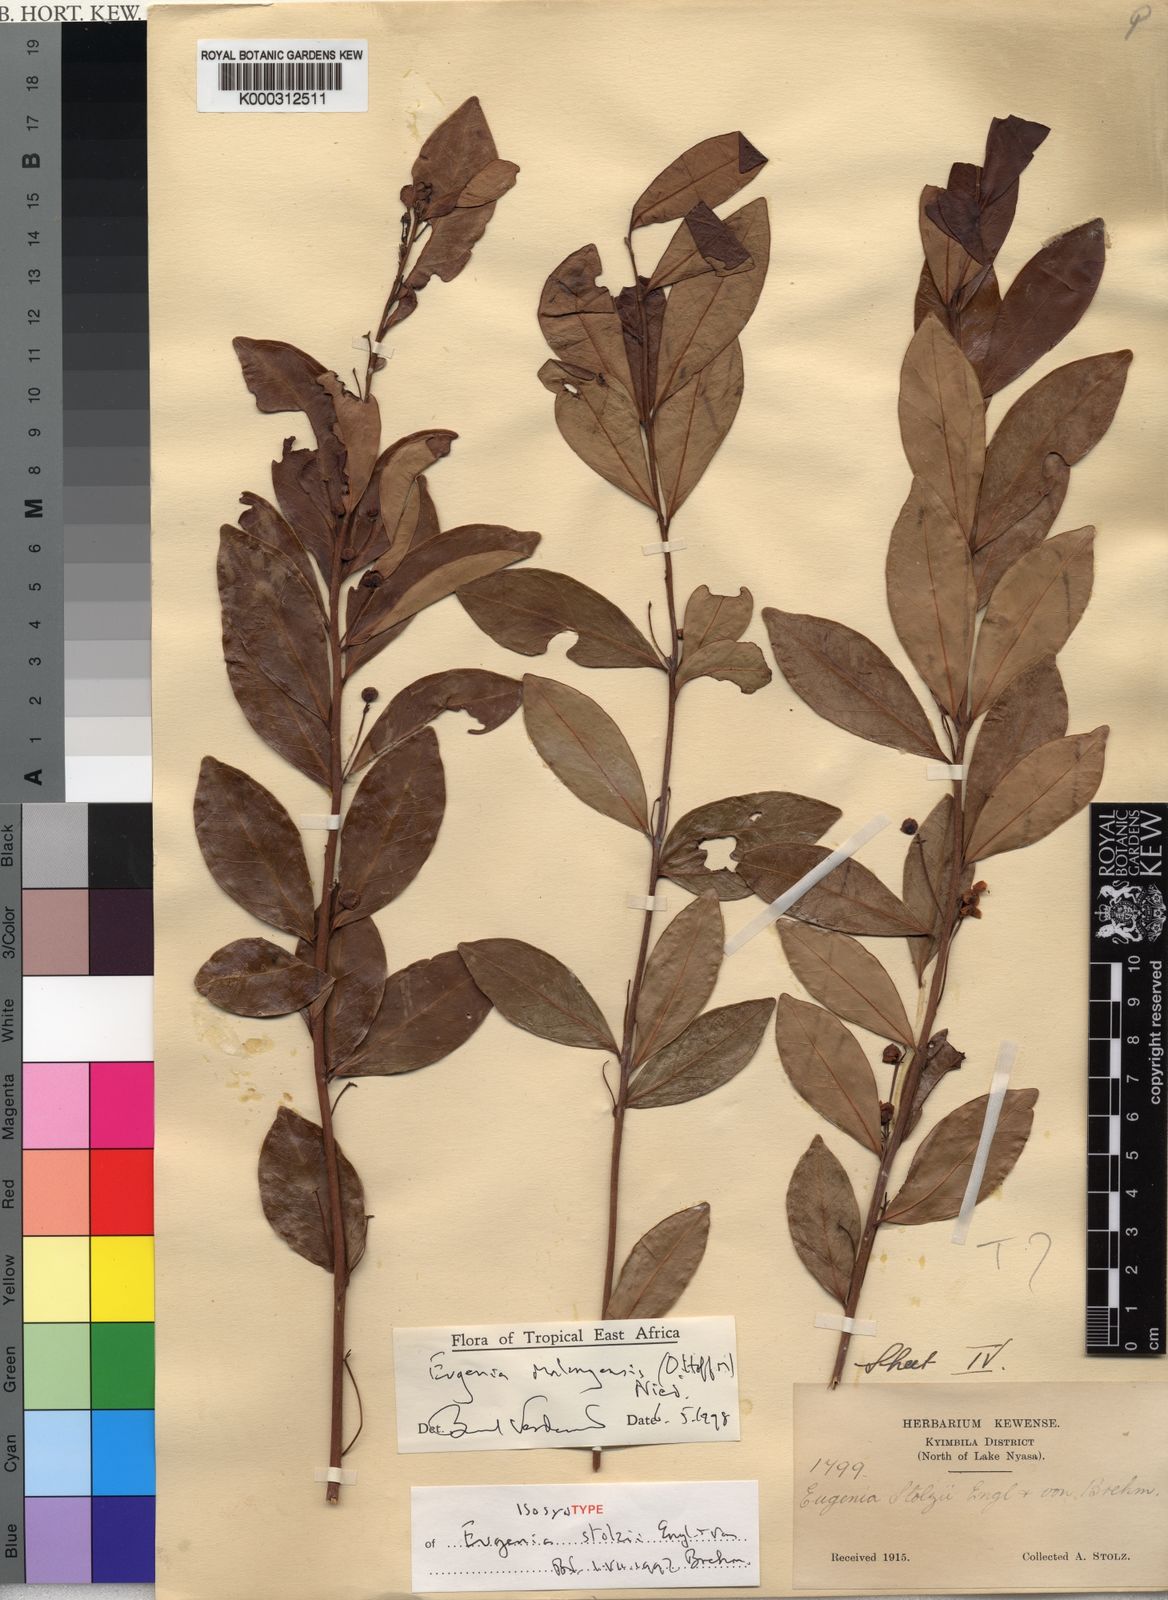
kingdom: Plantae
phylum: Tracheophyta
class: Magnoliopsida
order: Myrtales
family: Myrtaceae
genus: Eugenia
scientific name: Eugenia malangensis
